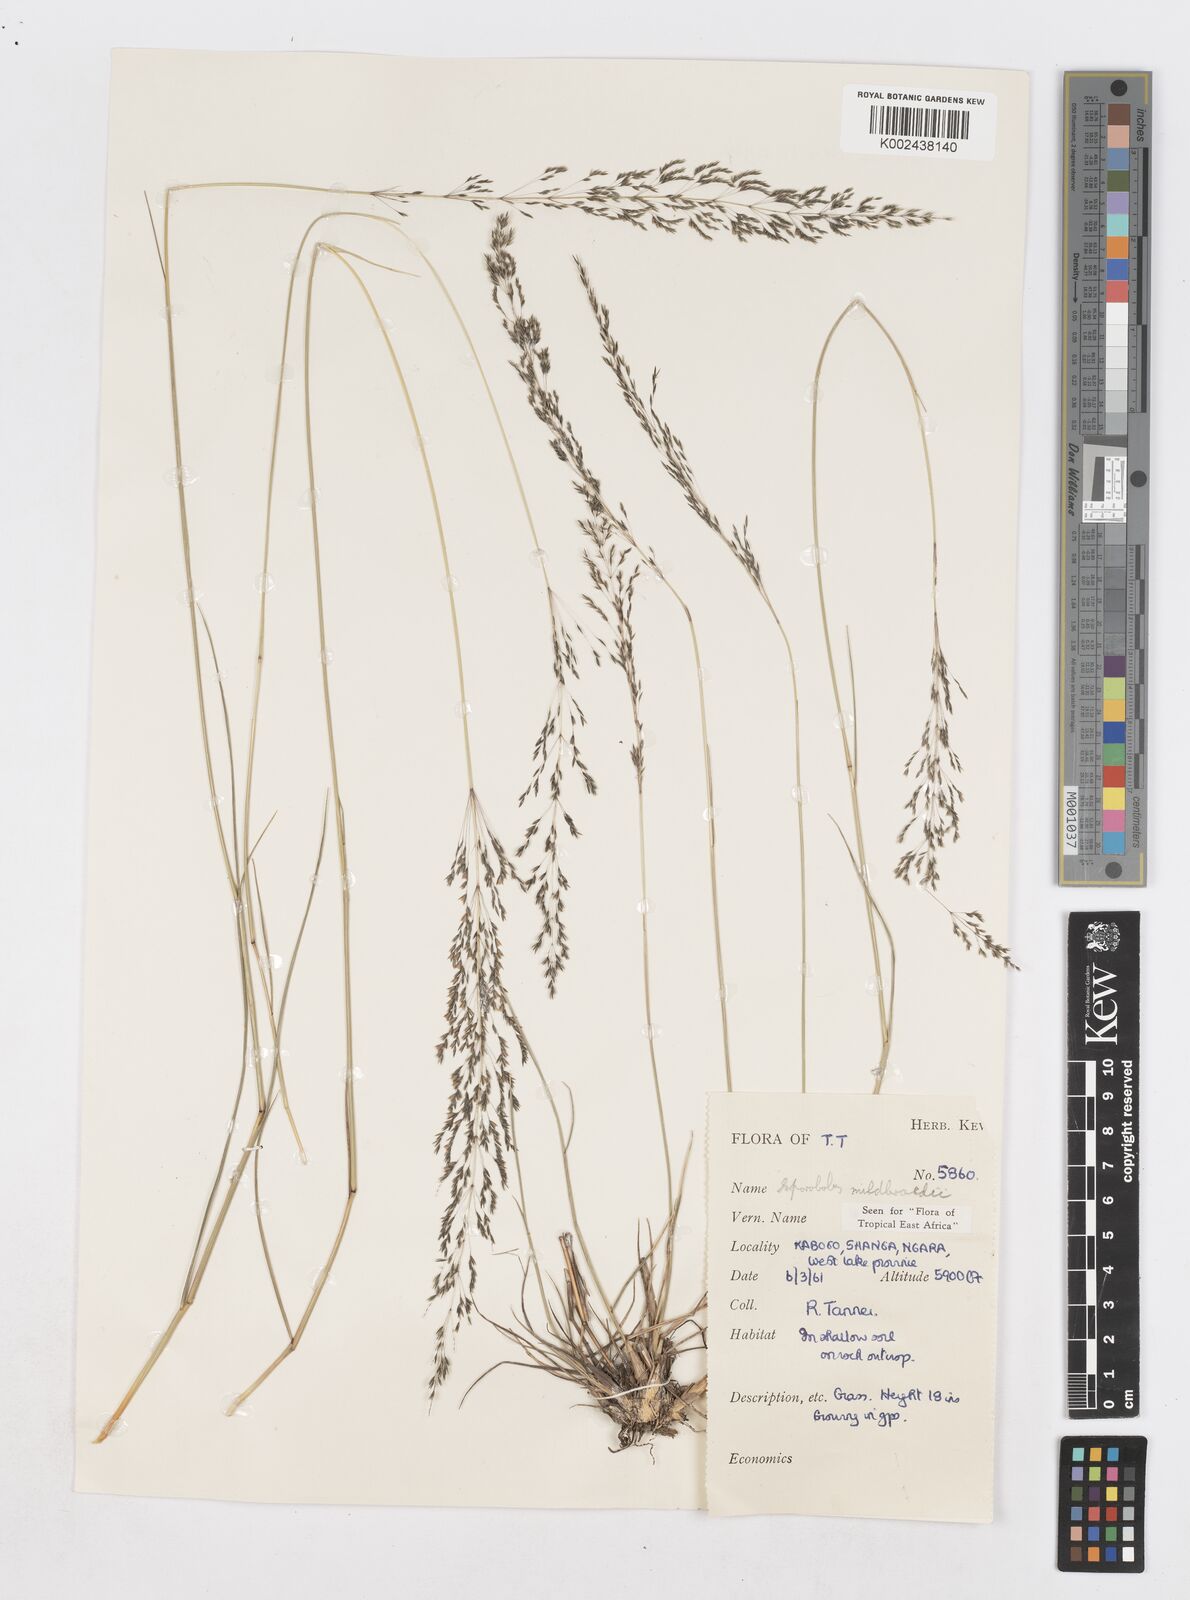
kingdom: Plantae
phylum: Tracheophyta
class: Liliopsida
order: Poales
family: Poaceae
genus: Sporobolus
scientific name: Sporobolus mildbraedii
